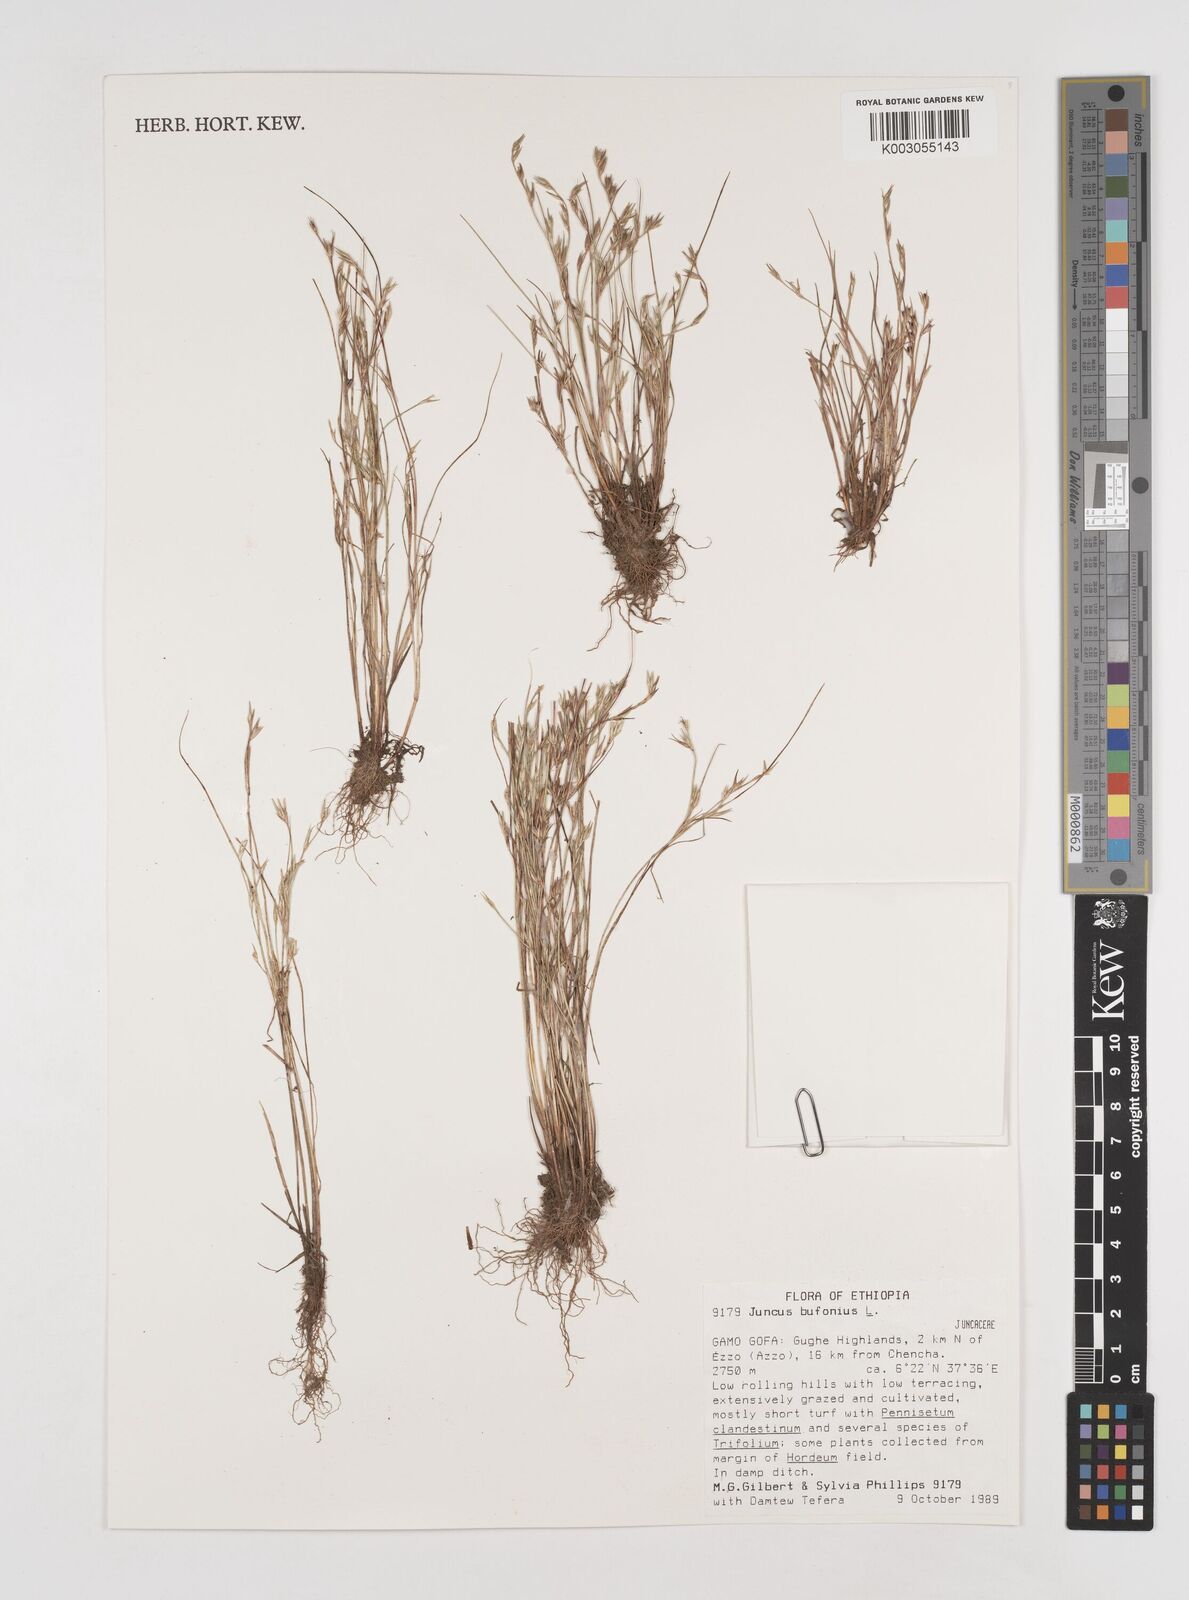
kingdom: Plantae
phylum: Tracheophyta
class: Liliopsida
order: Poales
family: Juncaceae
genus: Juncus
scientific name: Juncus bufonius
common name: Toad rush
